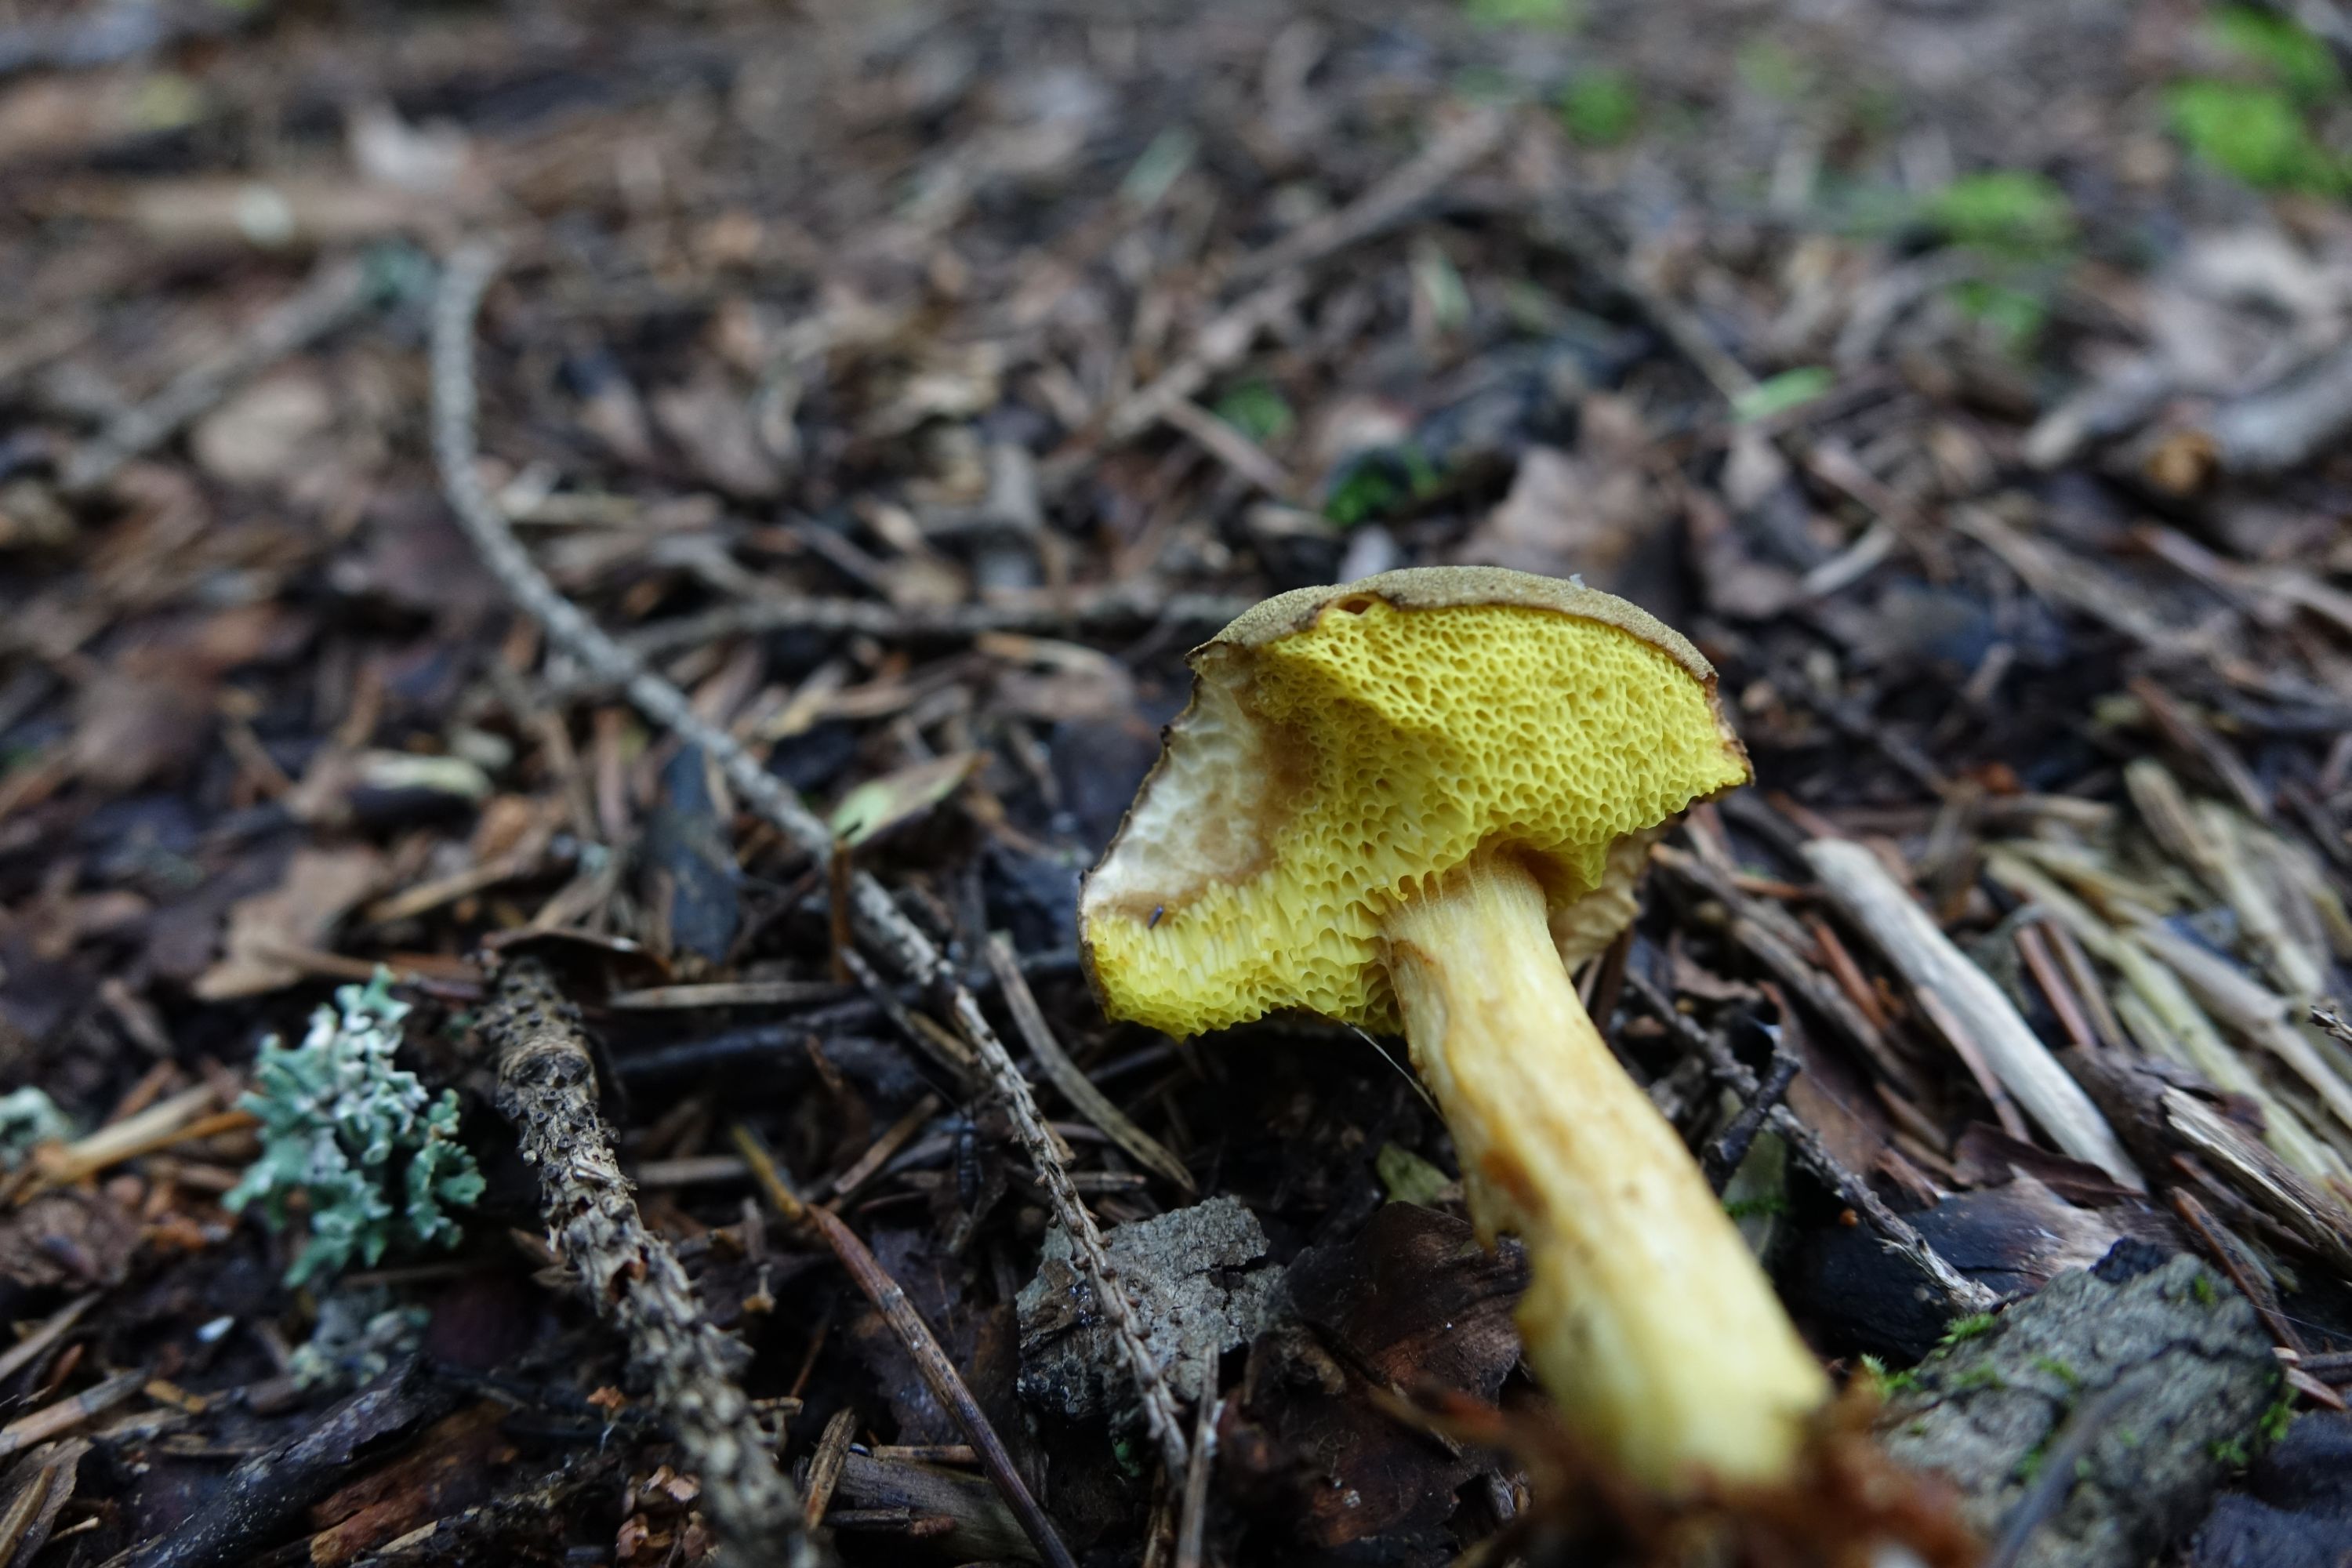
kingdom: Fungi
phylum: Basidiomycota
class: Agaricomycetes
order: Boletales
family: Boletaceae
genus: Xerocomus
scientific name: Xerocomus subtomentosus
